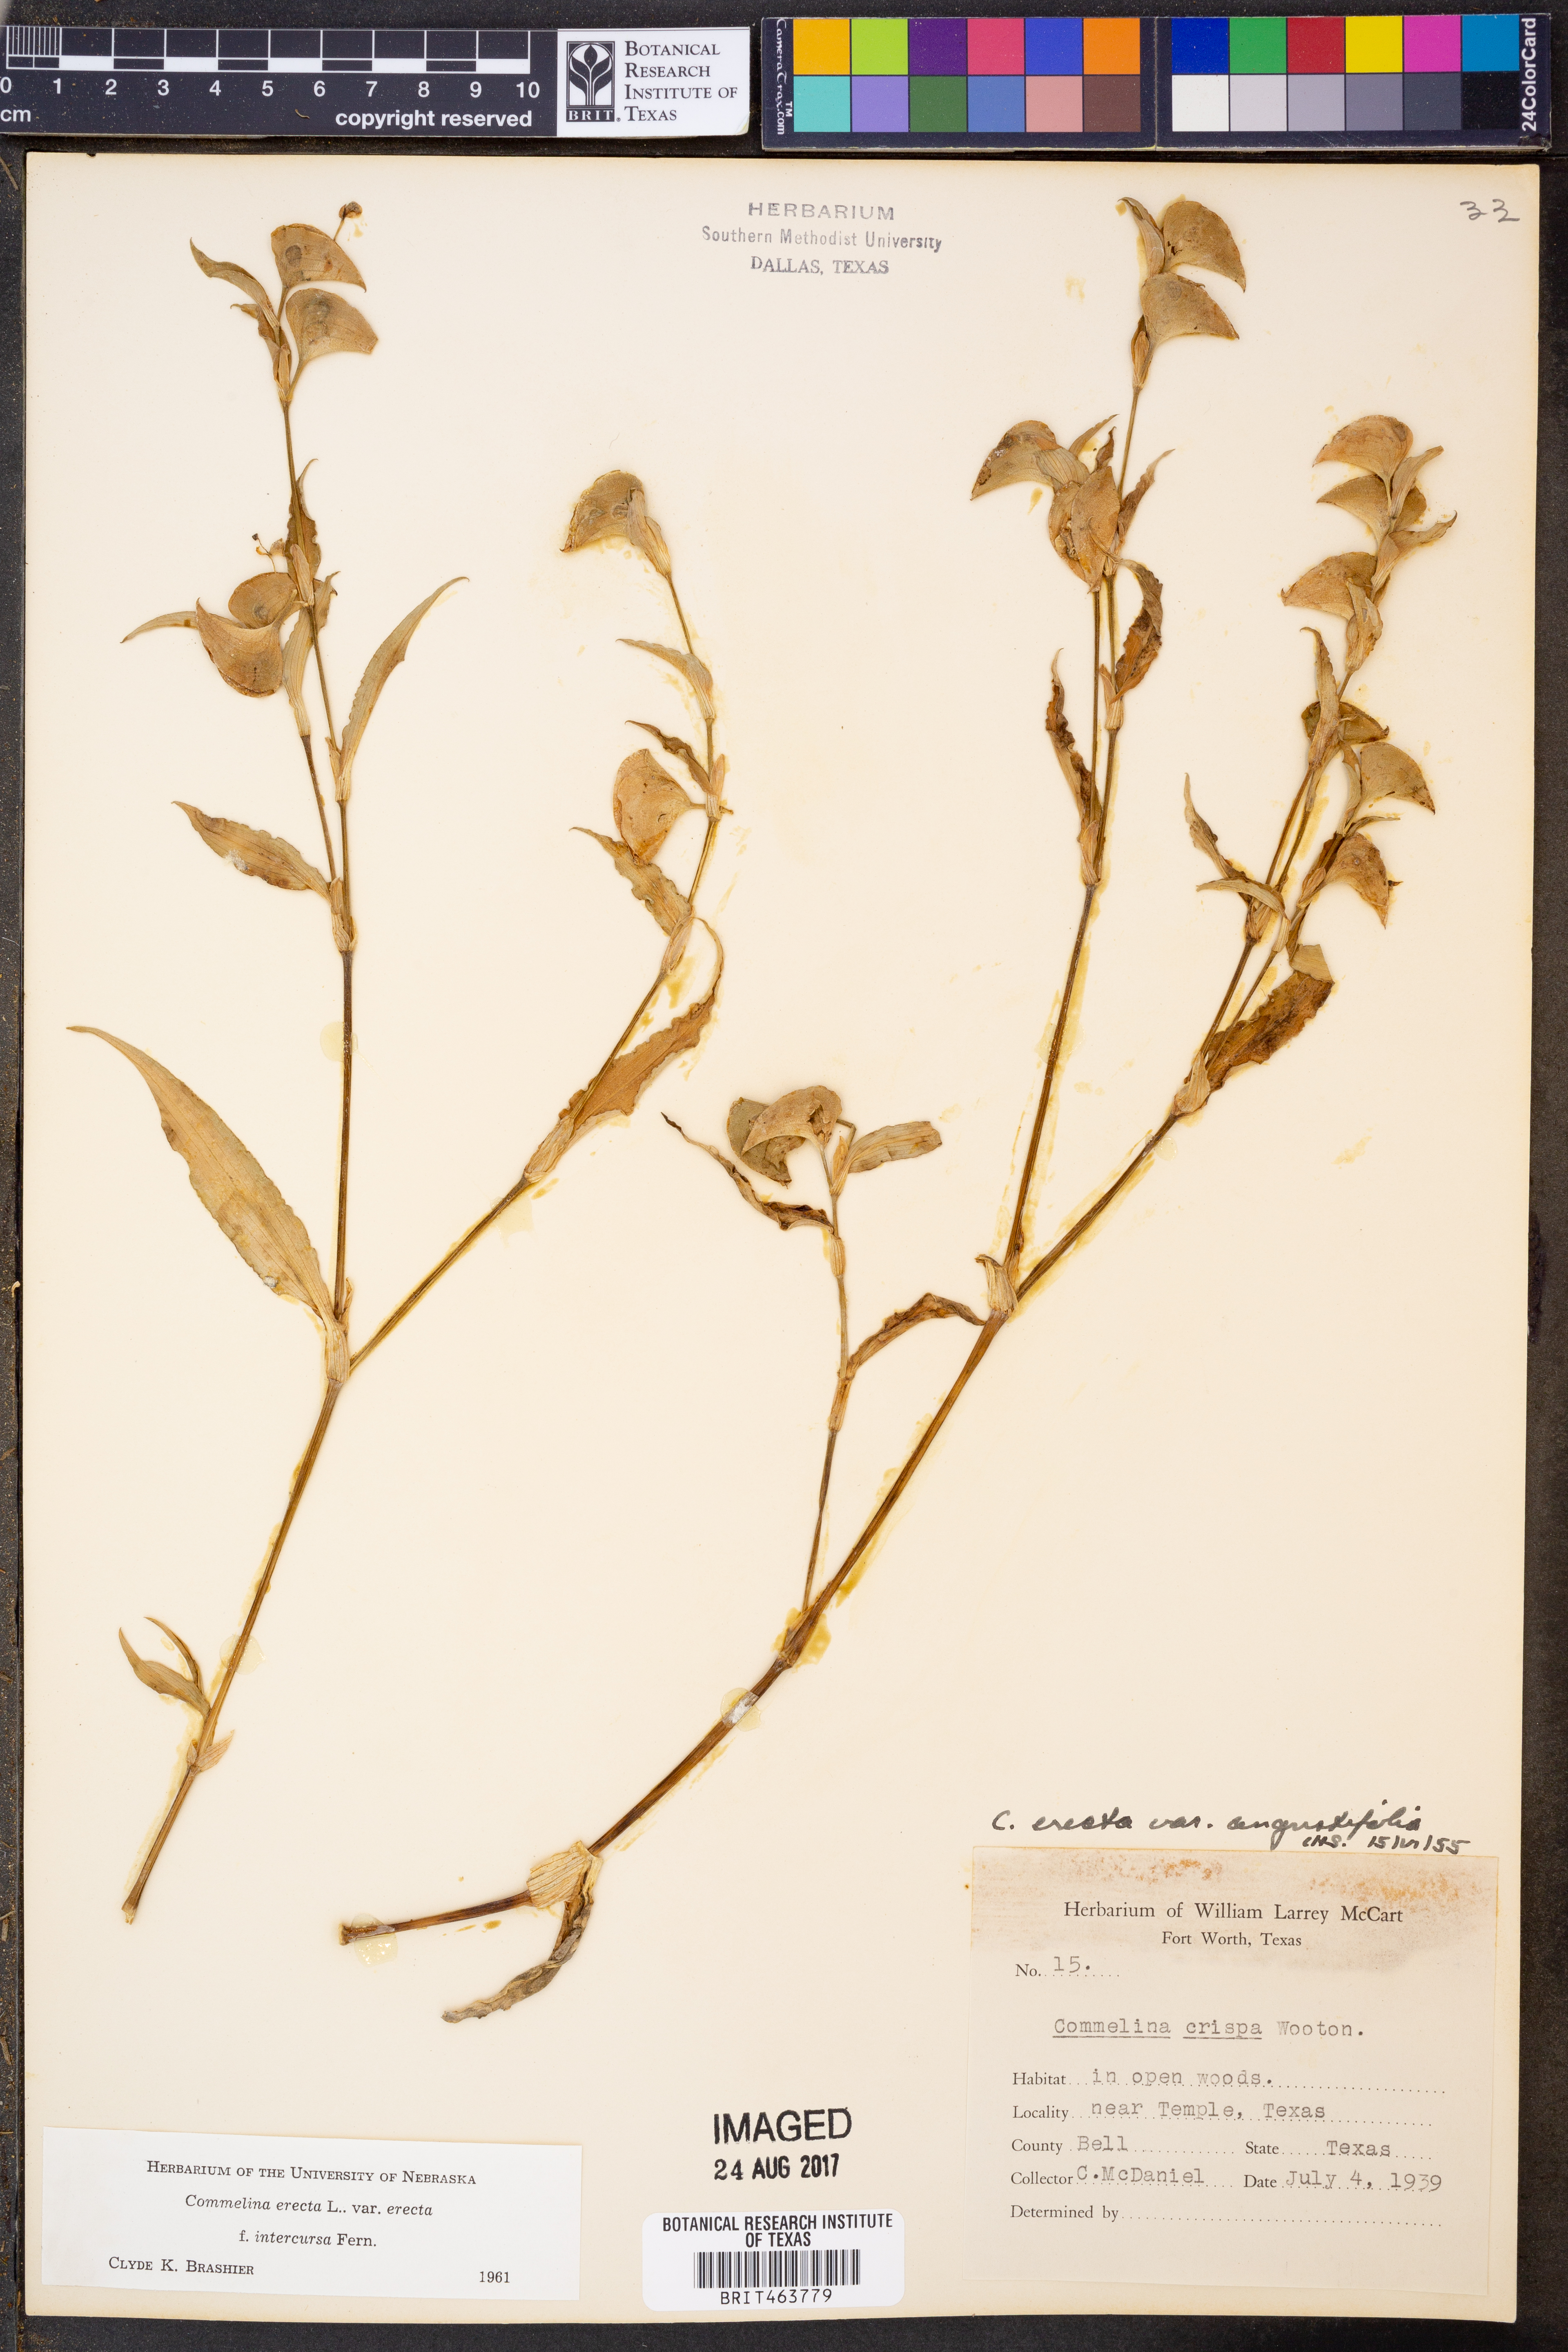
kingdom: Plantae
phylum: Tracheophyta
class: Liliopsida
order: Commelinales
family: Commelinaceae
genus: Commelina
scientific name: Commelina erecta
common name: Blousel blommetjie
